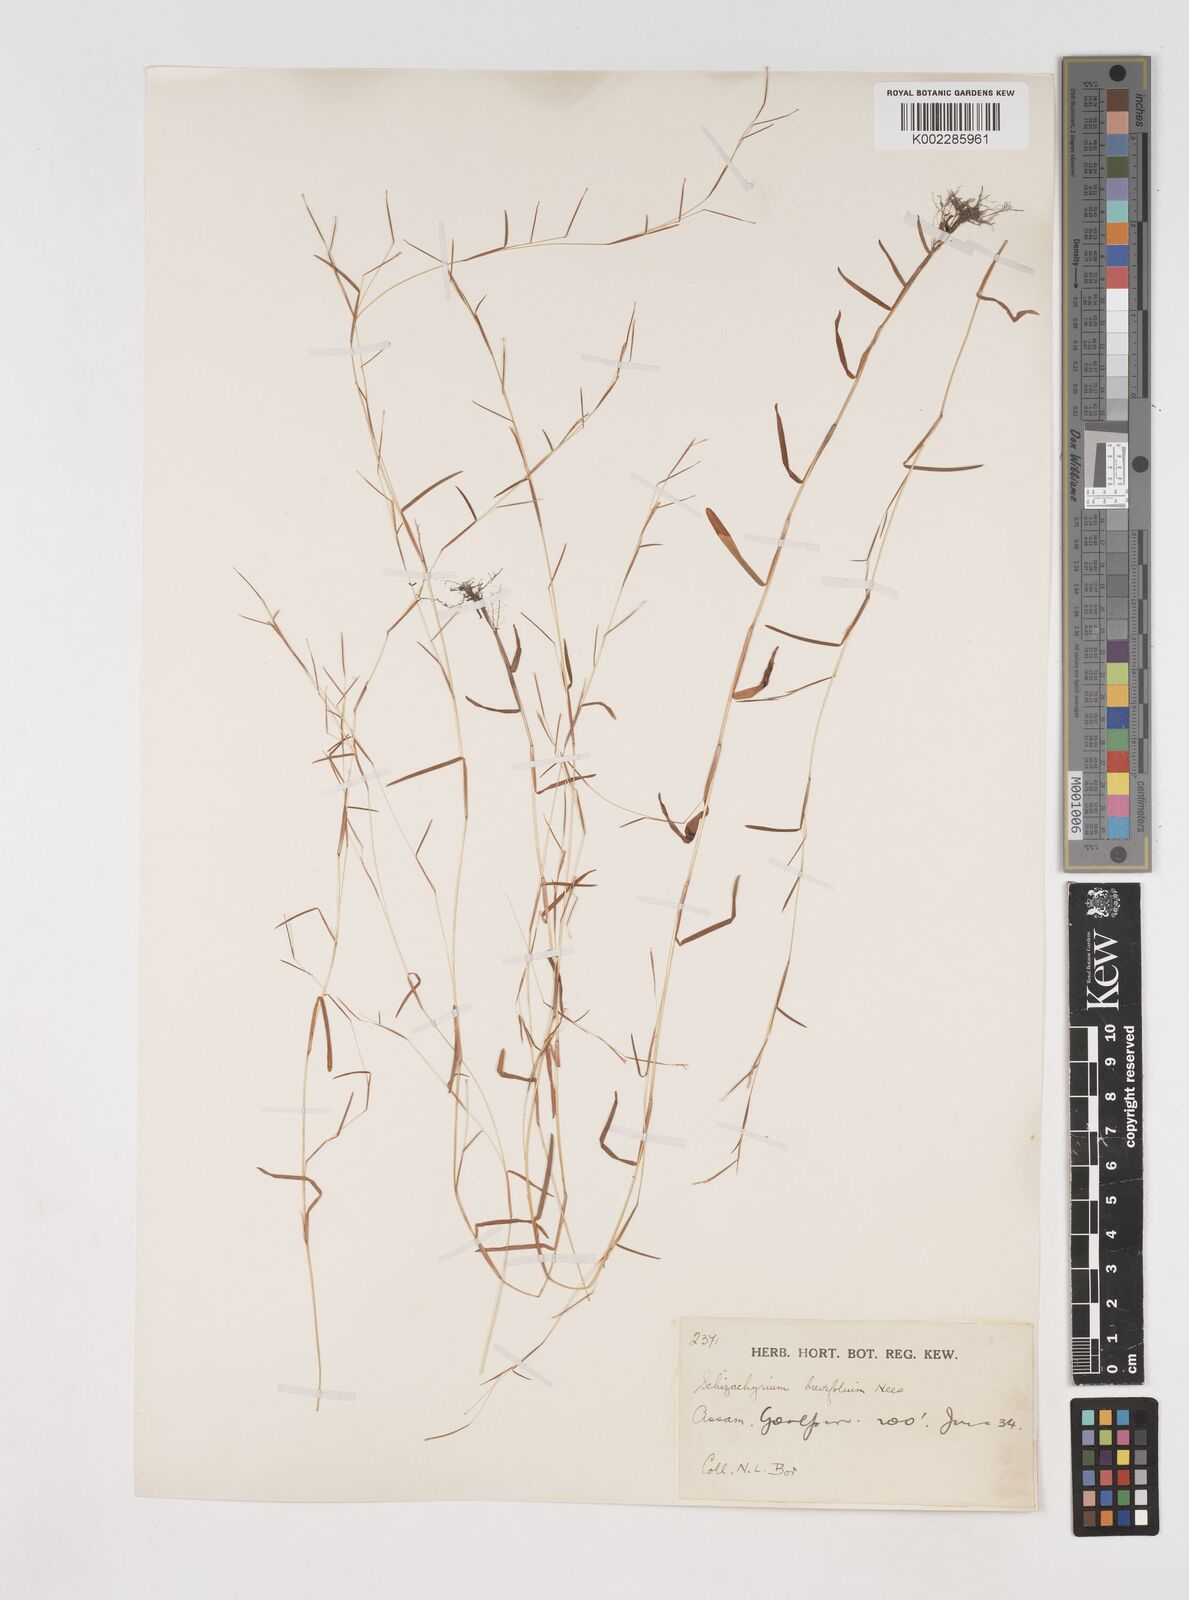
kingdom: Plantae
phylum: Tracheophyta
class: Liliopsida
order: Poales
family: Poaceae
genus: Schizachyrium
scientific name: Schizachyrium brevifolium
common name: Serillo dulce
